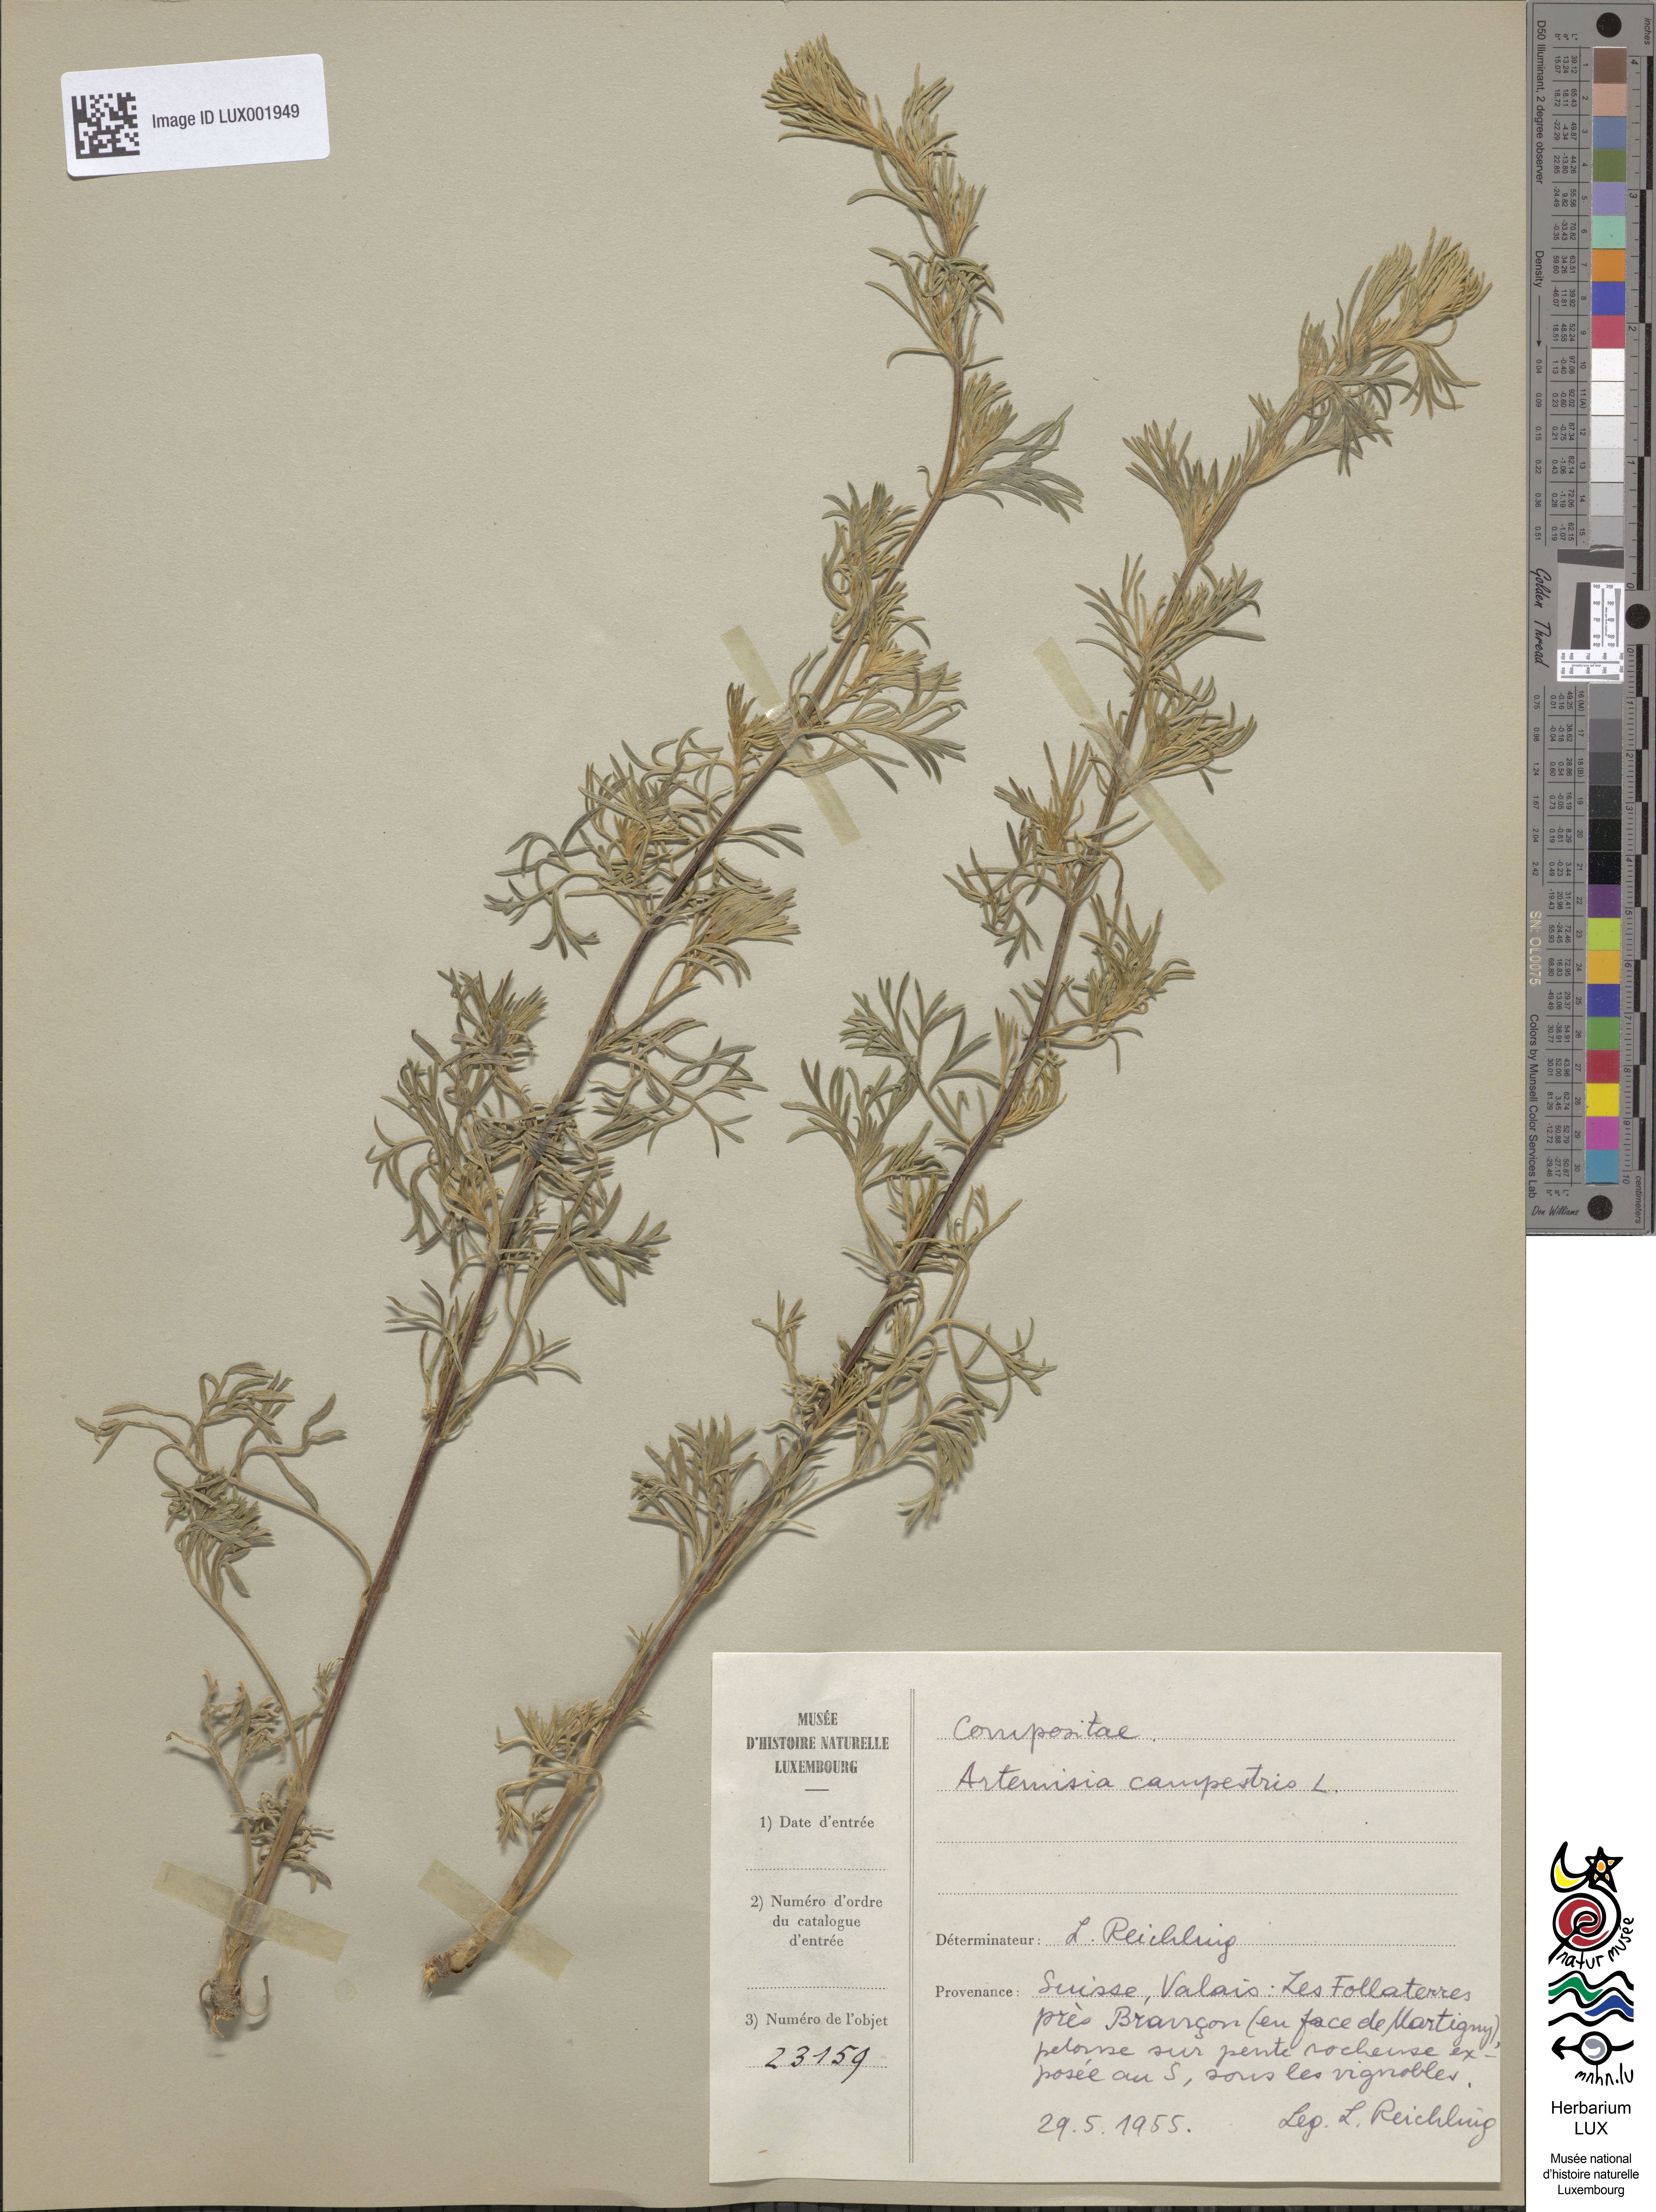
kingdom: Plantae
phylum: Tracheophyta
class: Magnoliopsida
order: Asterales
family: Asteraceae
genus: Artemisia
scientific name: Artemisia campestris
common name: Field wormwood
